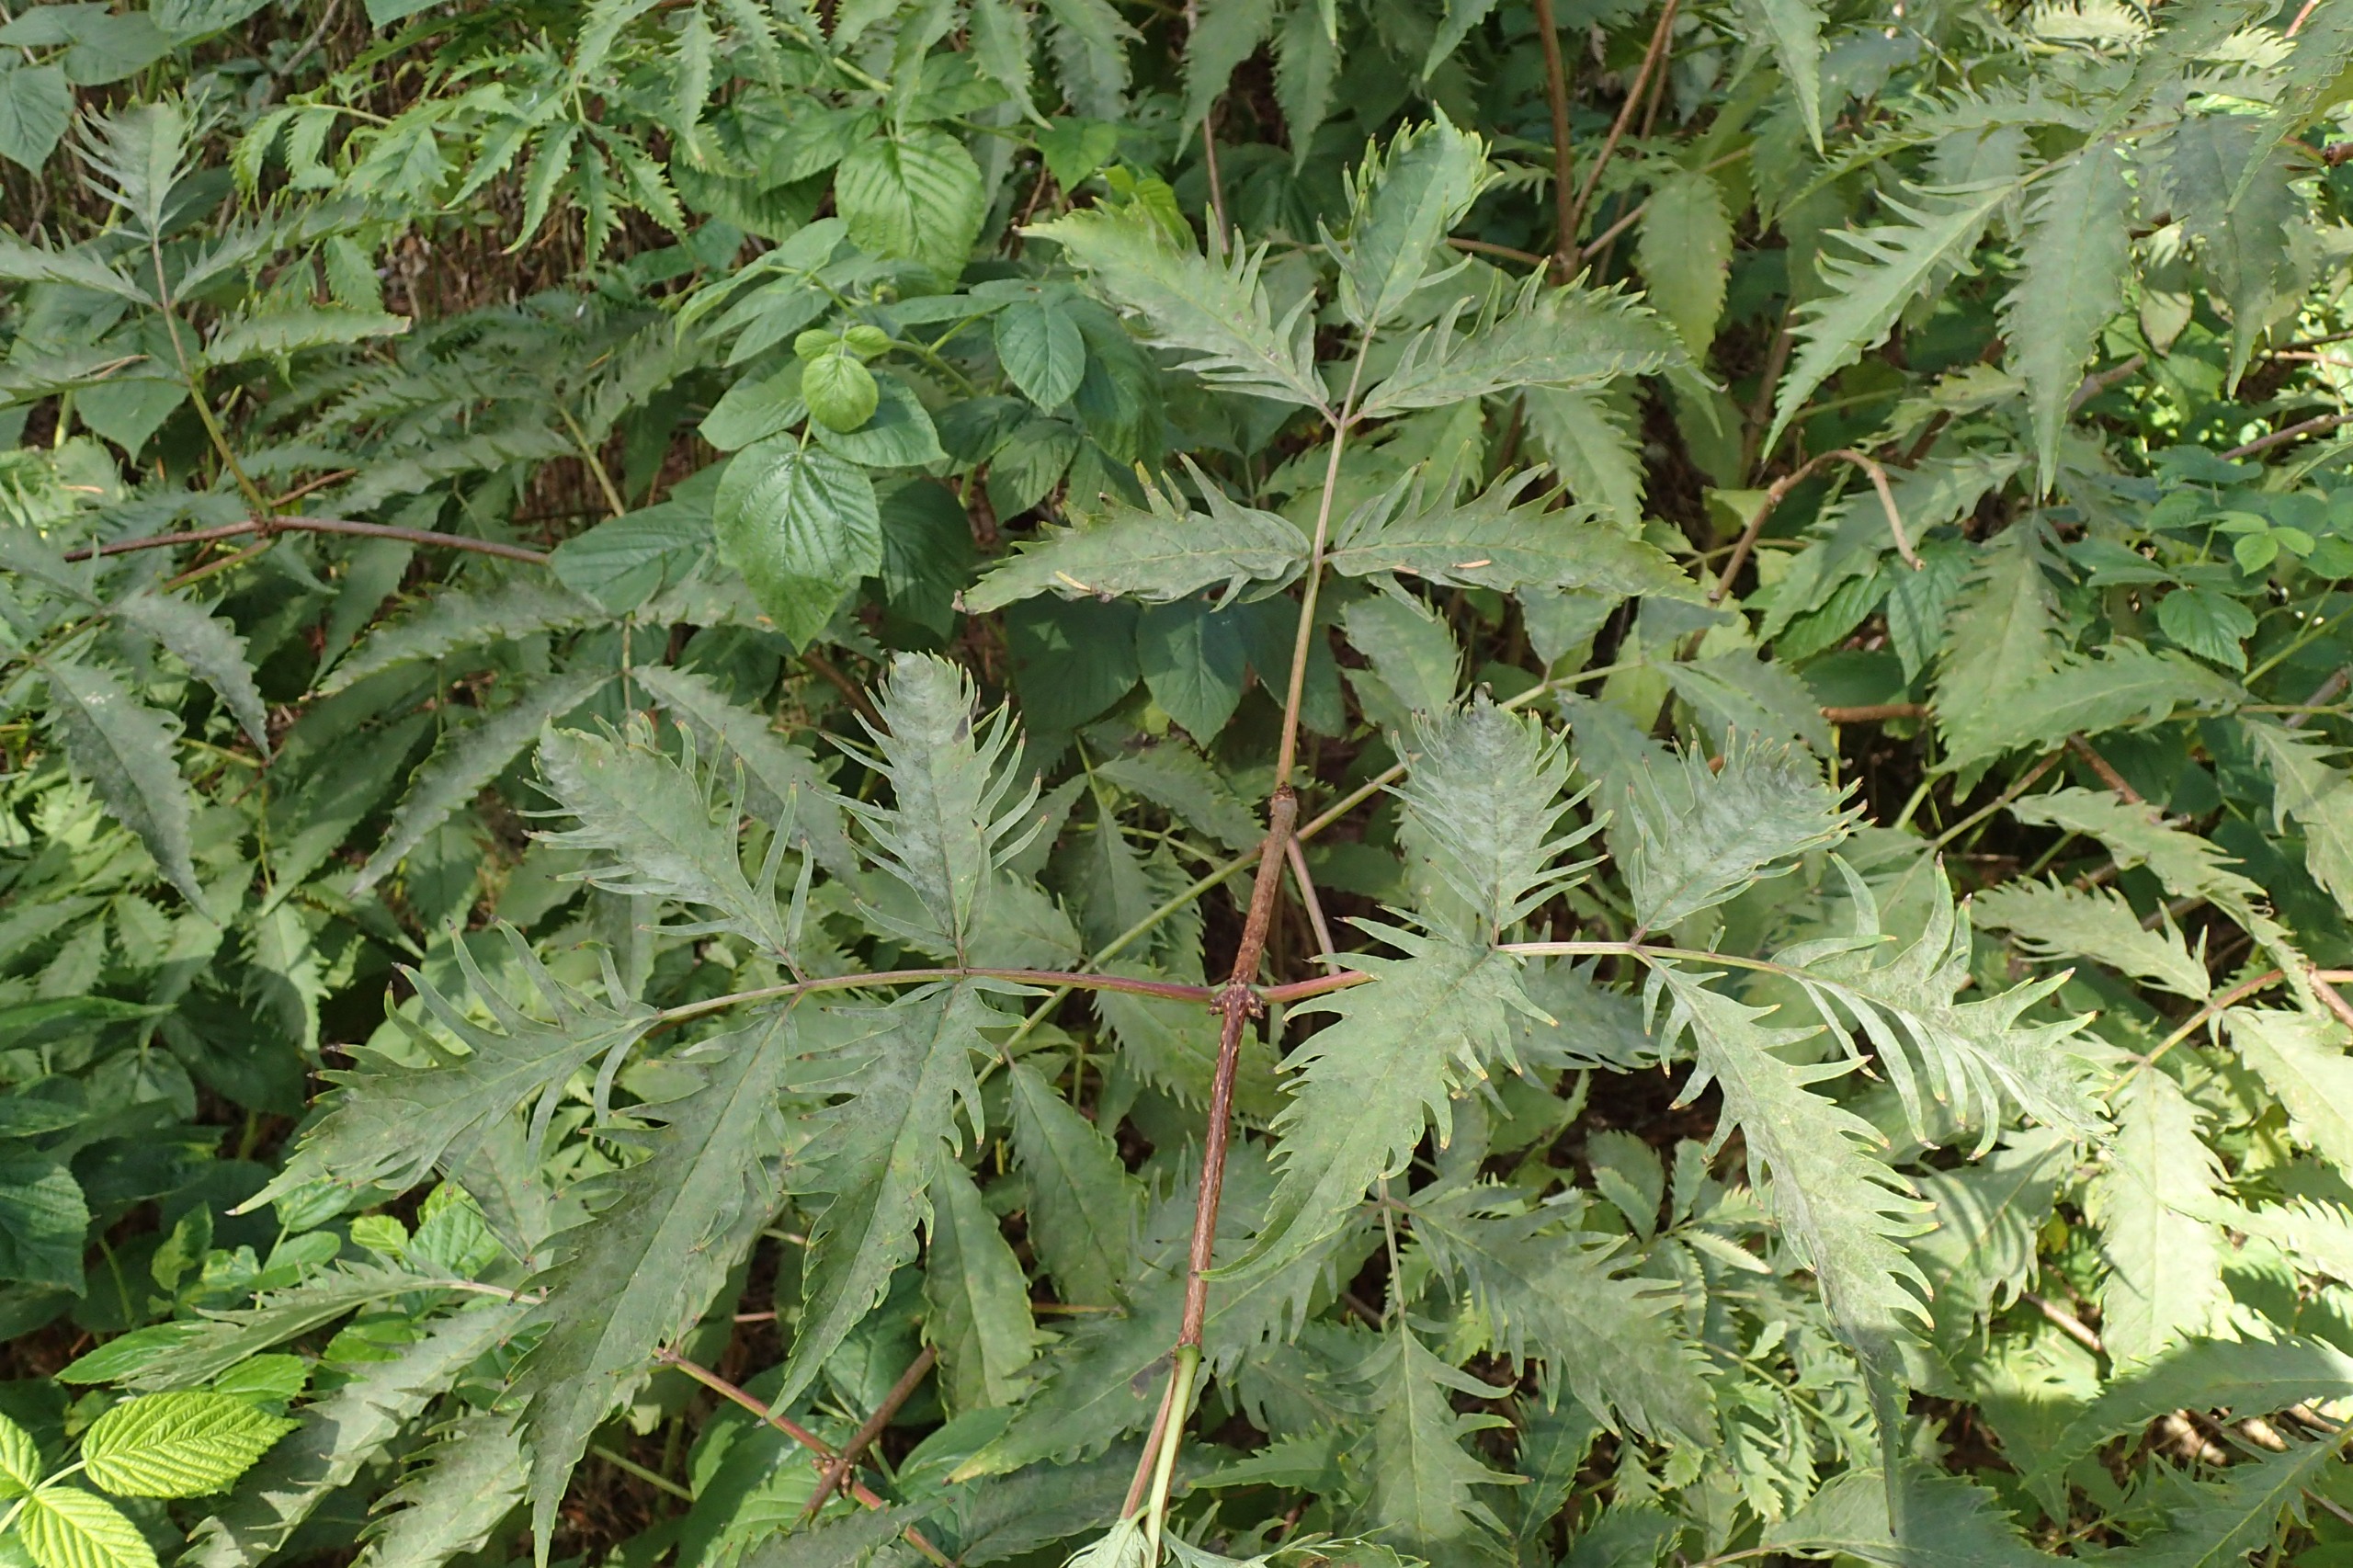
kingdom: Plantae
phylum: Tracheophyta
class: Magnoliopsida
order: Dipsacales
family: Viburnaceae
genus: Sambucus
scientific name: Sambucus nigra
